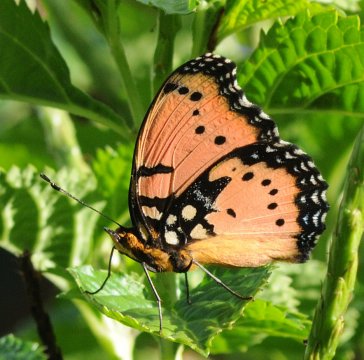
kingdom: Animalia
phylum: Arthropoda
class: Insecta
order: Lepidoptera
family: Nymphalidae
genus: Precis
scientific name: Precis octavia
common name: Gaudy Commodore
